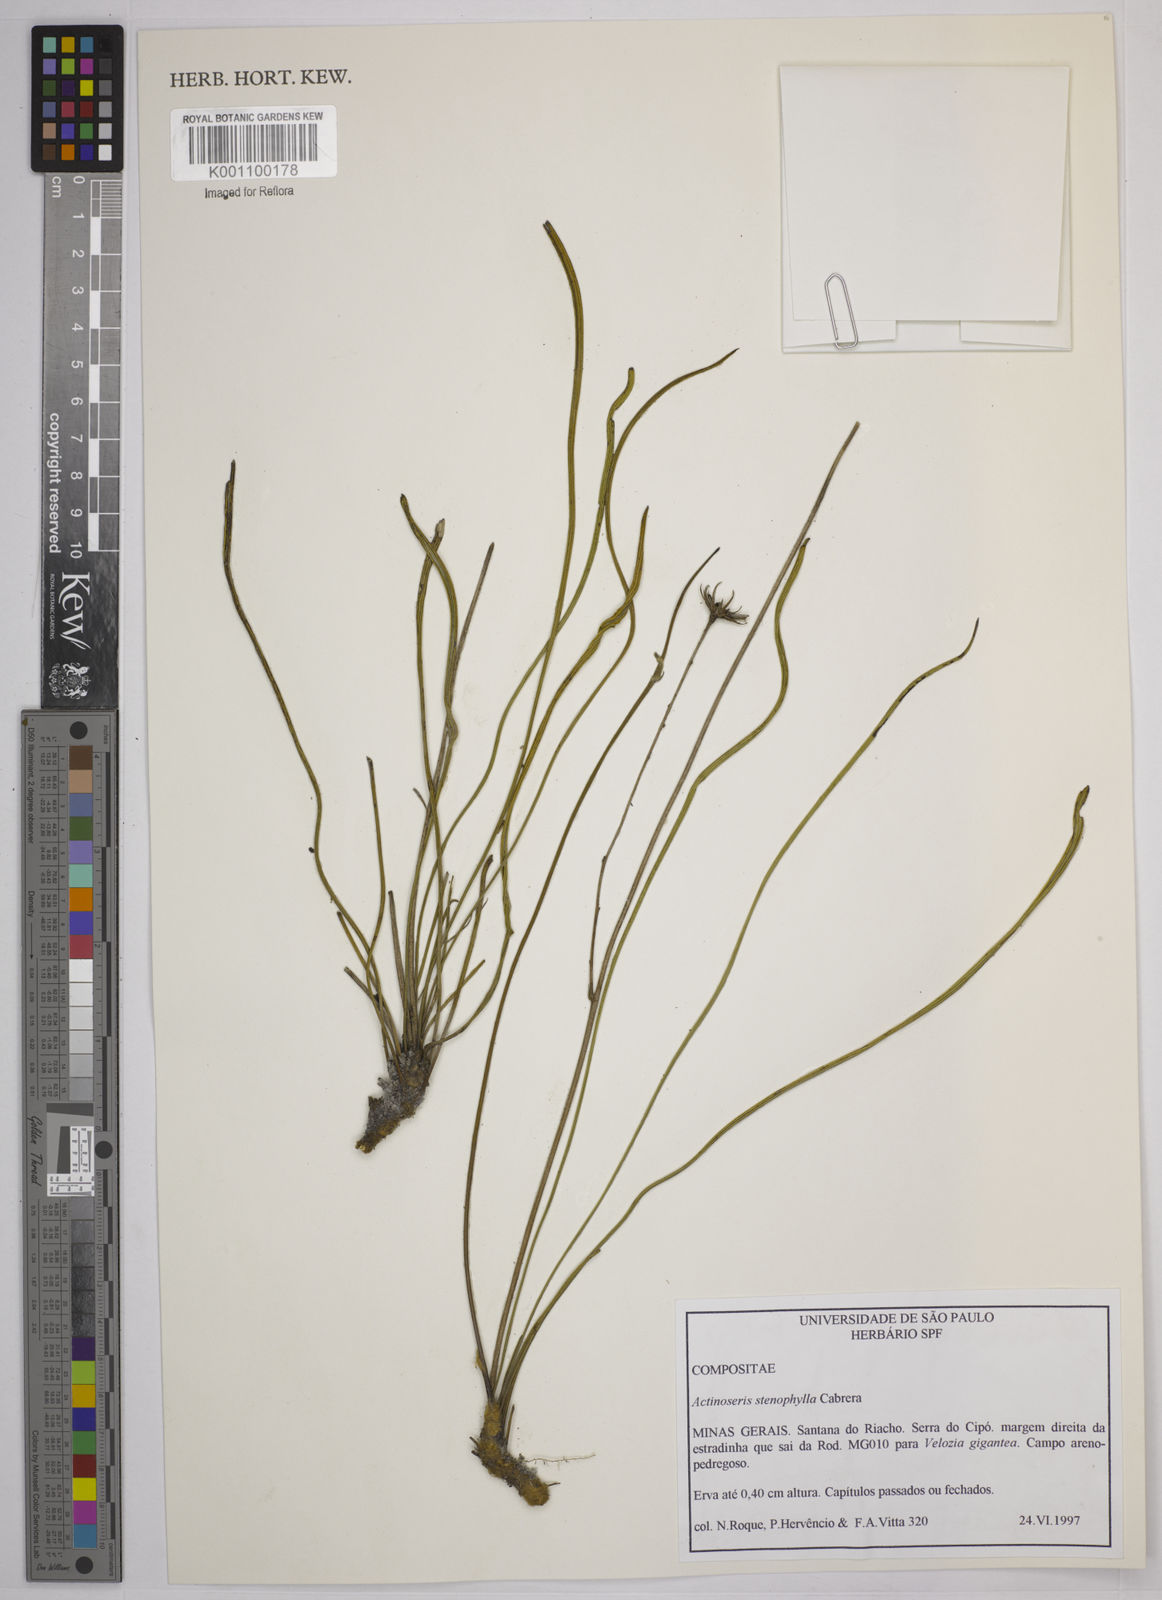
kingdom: Plantae
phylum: Tracheophyta
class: Magnoliopsida
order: Asterales
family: Asteraceae
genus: Richterago
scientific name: Richterago stenophylla
